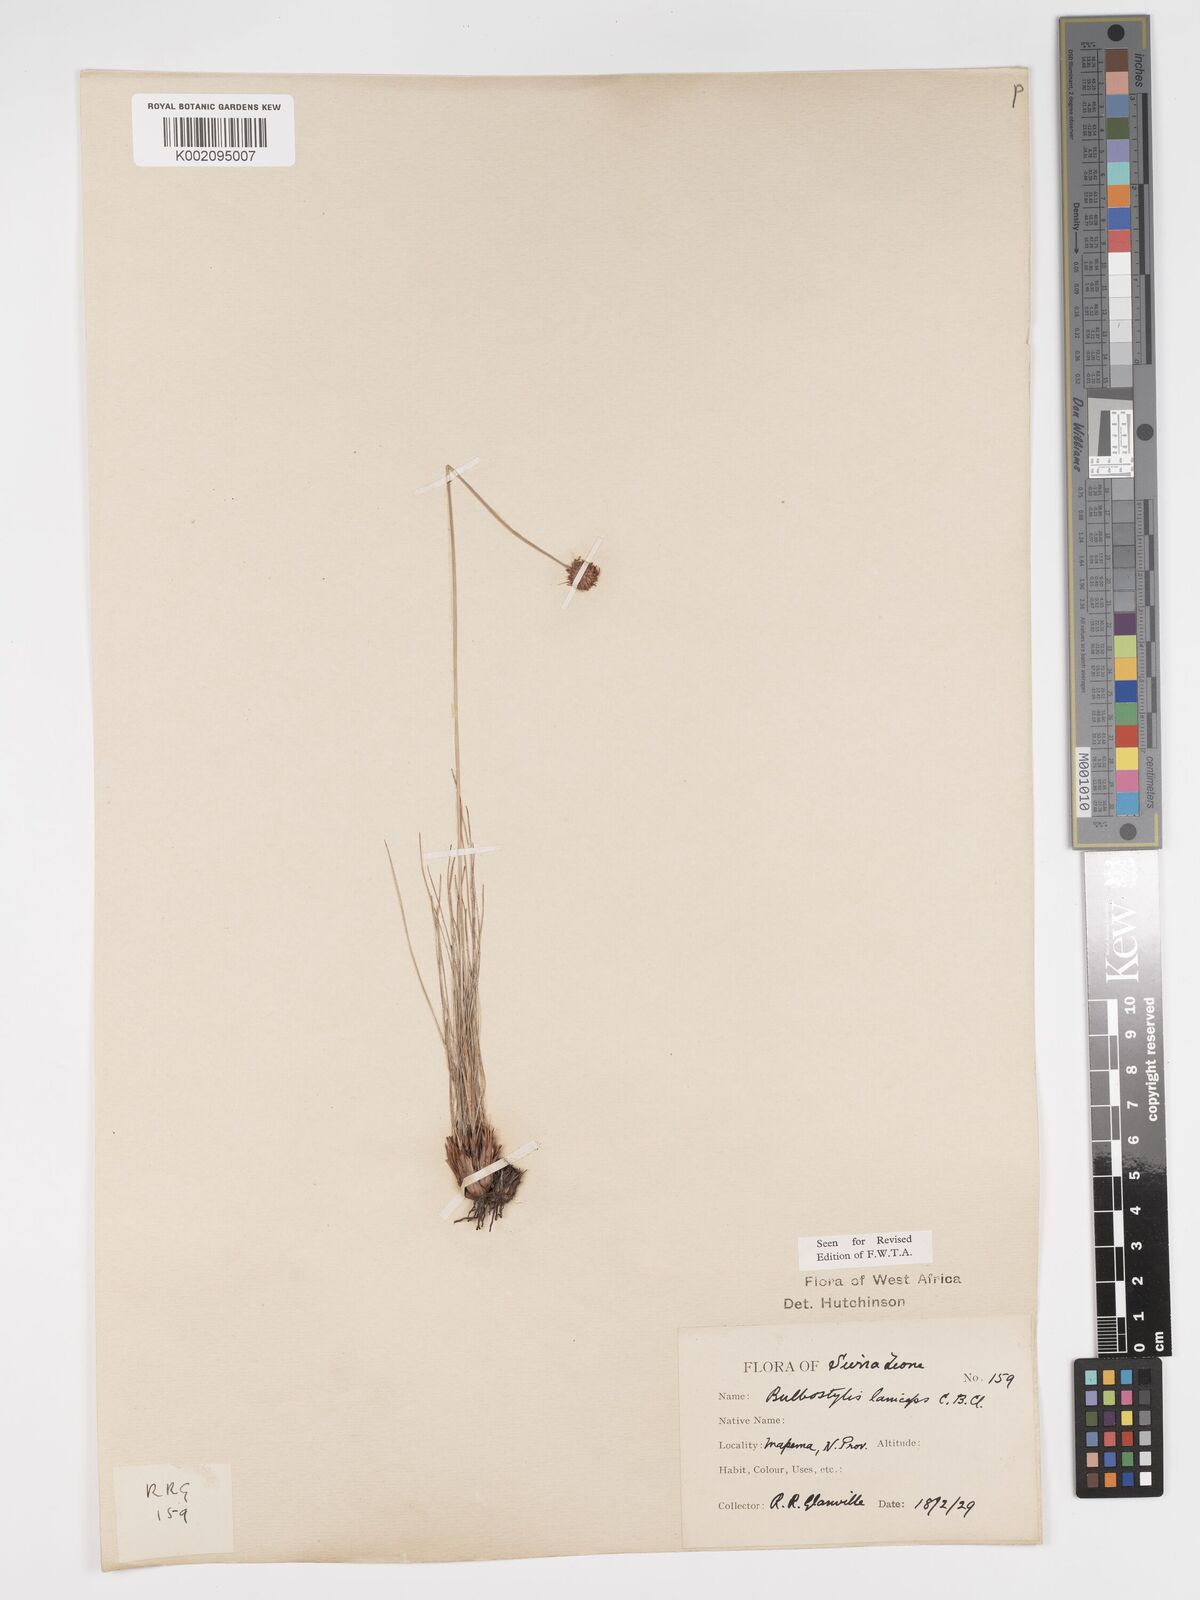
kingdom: Plantae
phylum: Tracheophyta
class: Liliopsida
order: Poales
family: Cyperaceae
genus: Bulbostylis
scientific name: Bulbostylis laniceps
